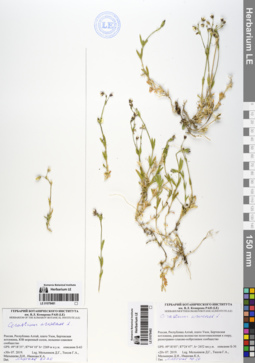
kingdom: Plantae
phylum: Tracheophyta
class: Magnoliopsida
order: Caryophyllales
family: Caryophyllaceae
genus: Cerastium
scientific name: Cerastium arvense
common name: Field mouse-ear
